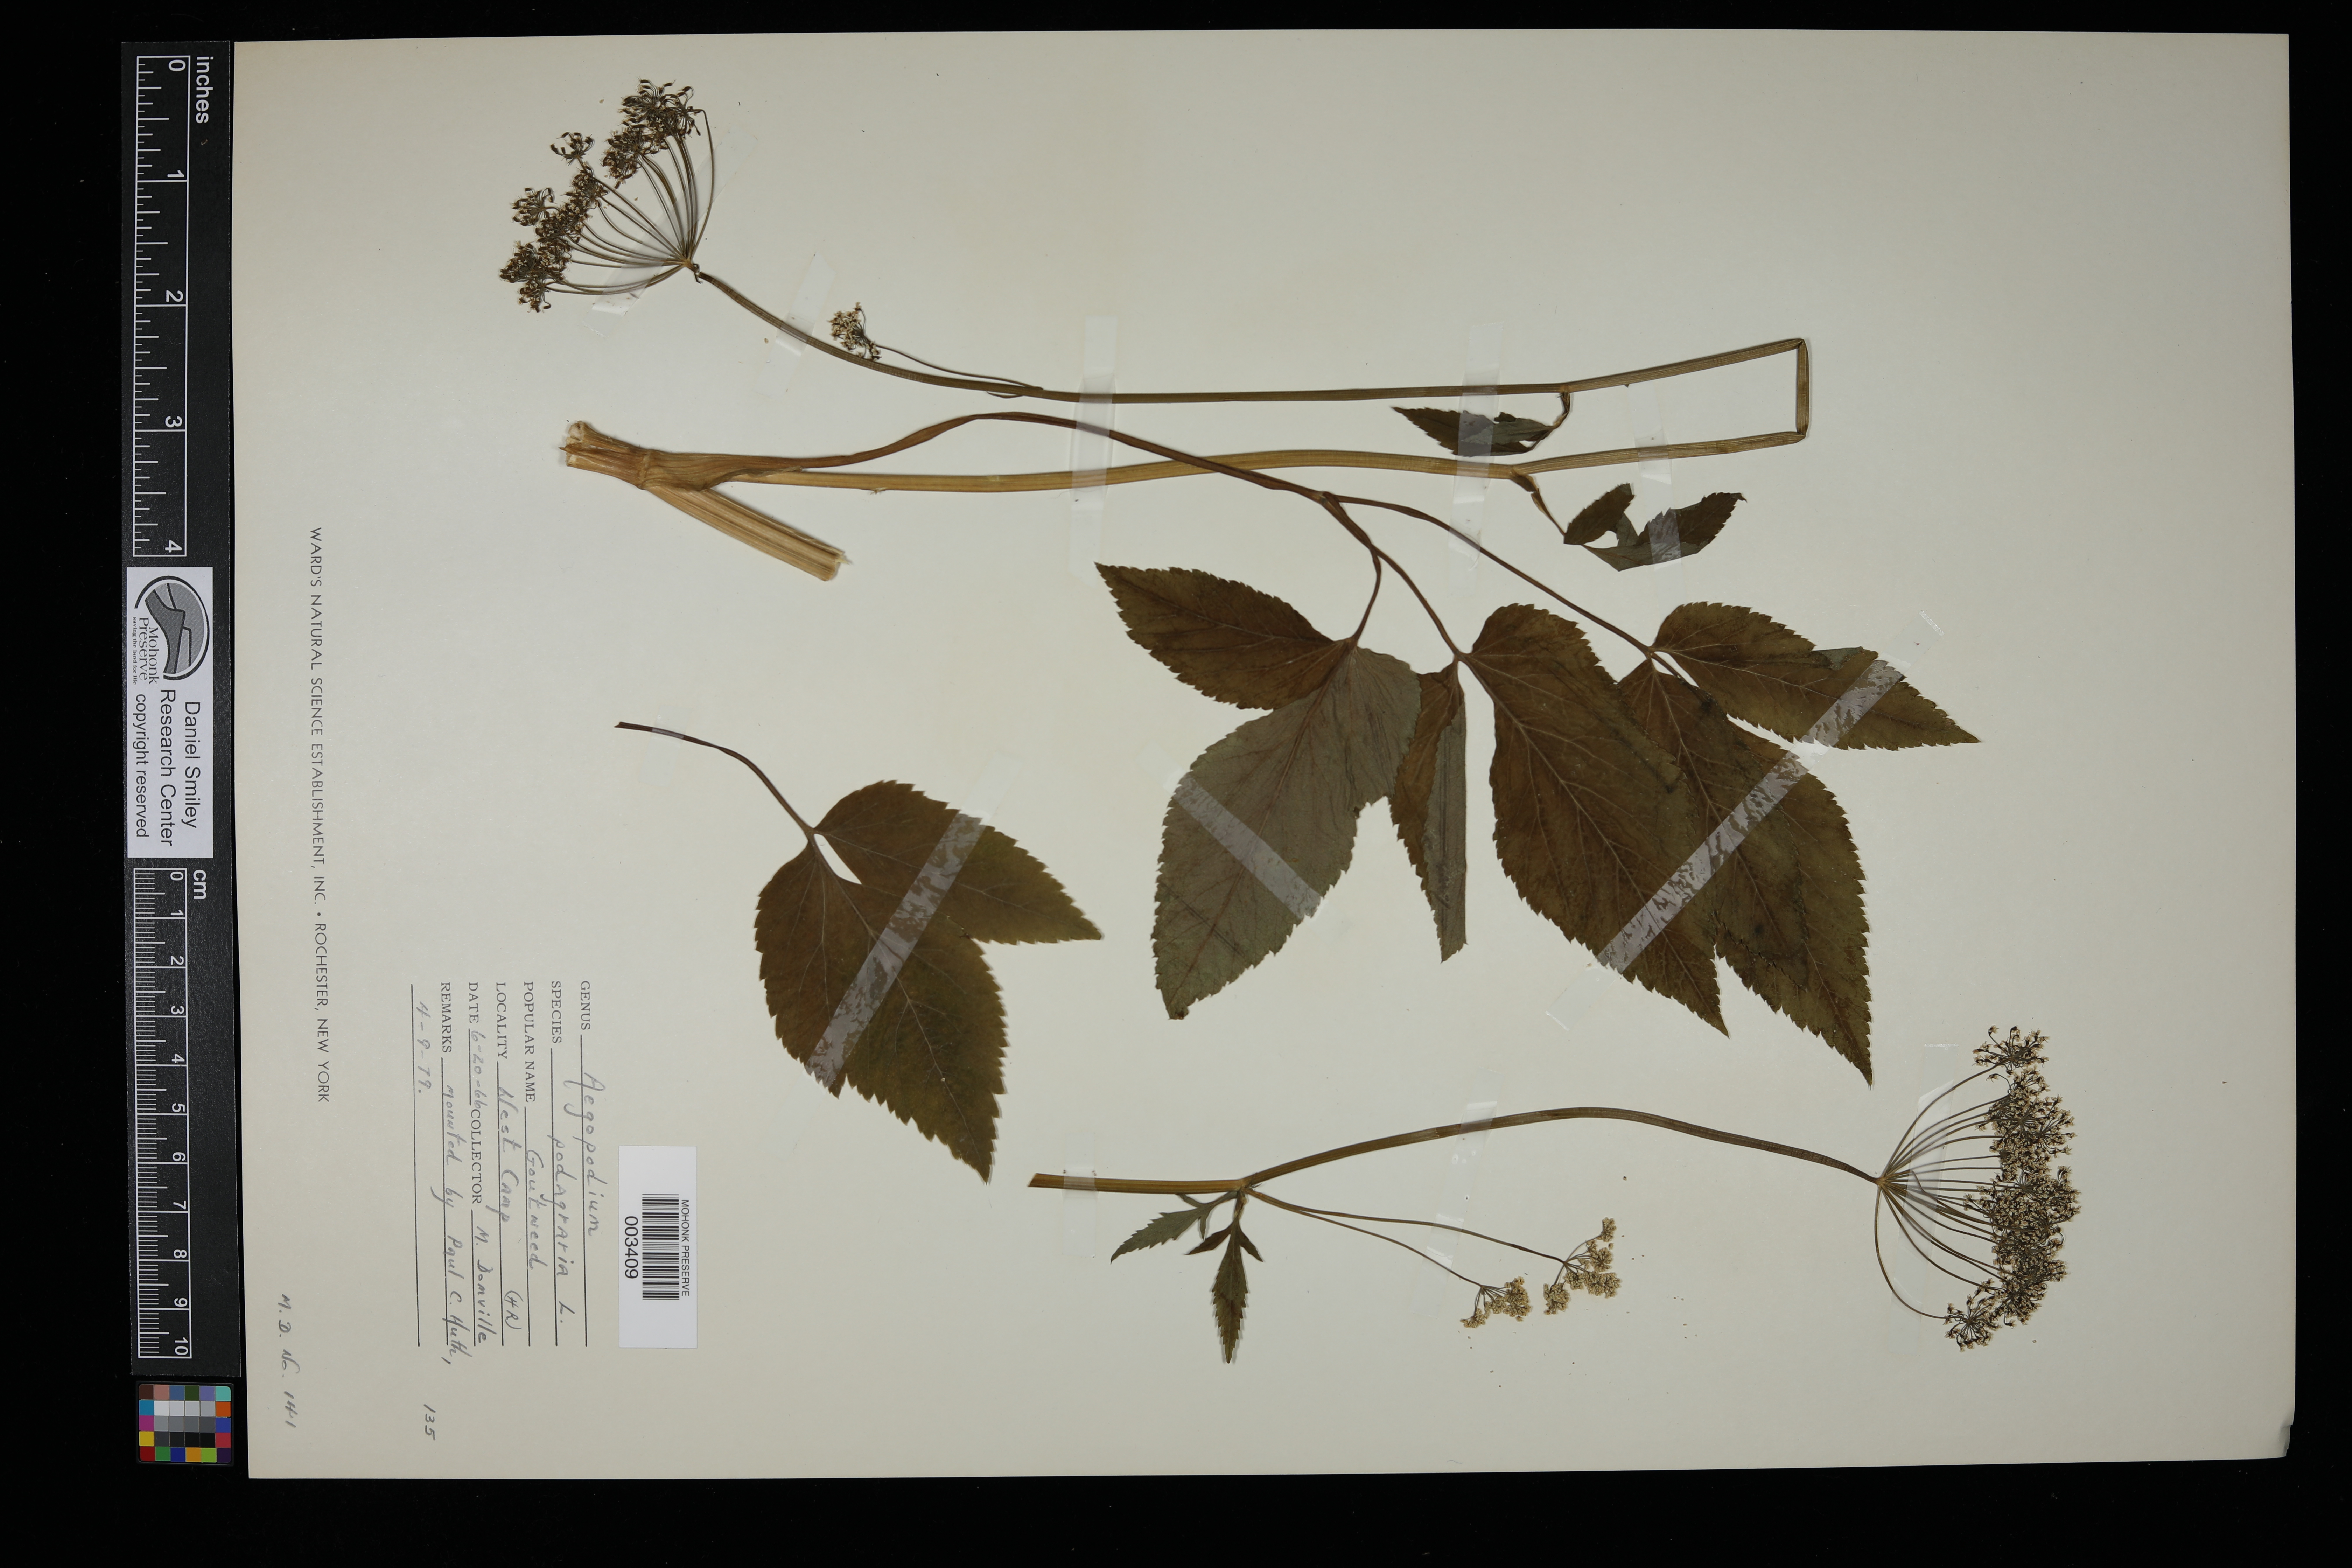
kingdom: Plantae
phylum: Tracheophyta
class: Magnoliopsida
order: Apiales
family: Apiaceae
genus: Aegopodium
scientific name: Aegopodium podagraria
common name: Ground-elder
